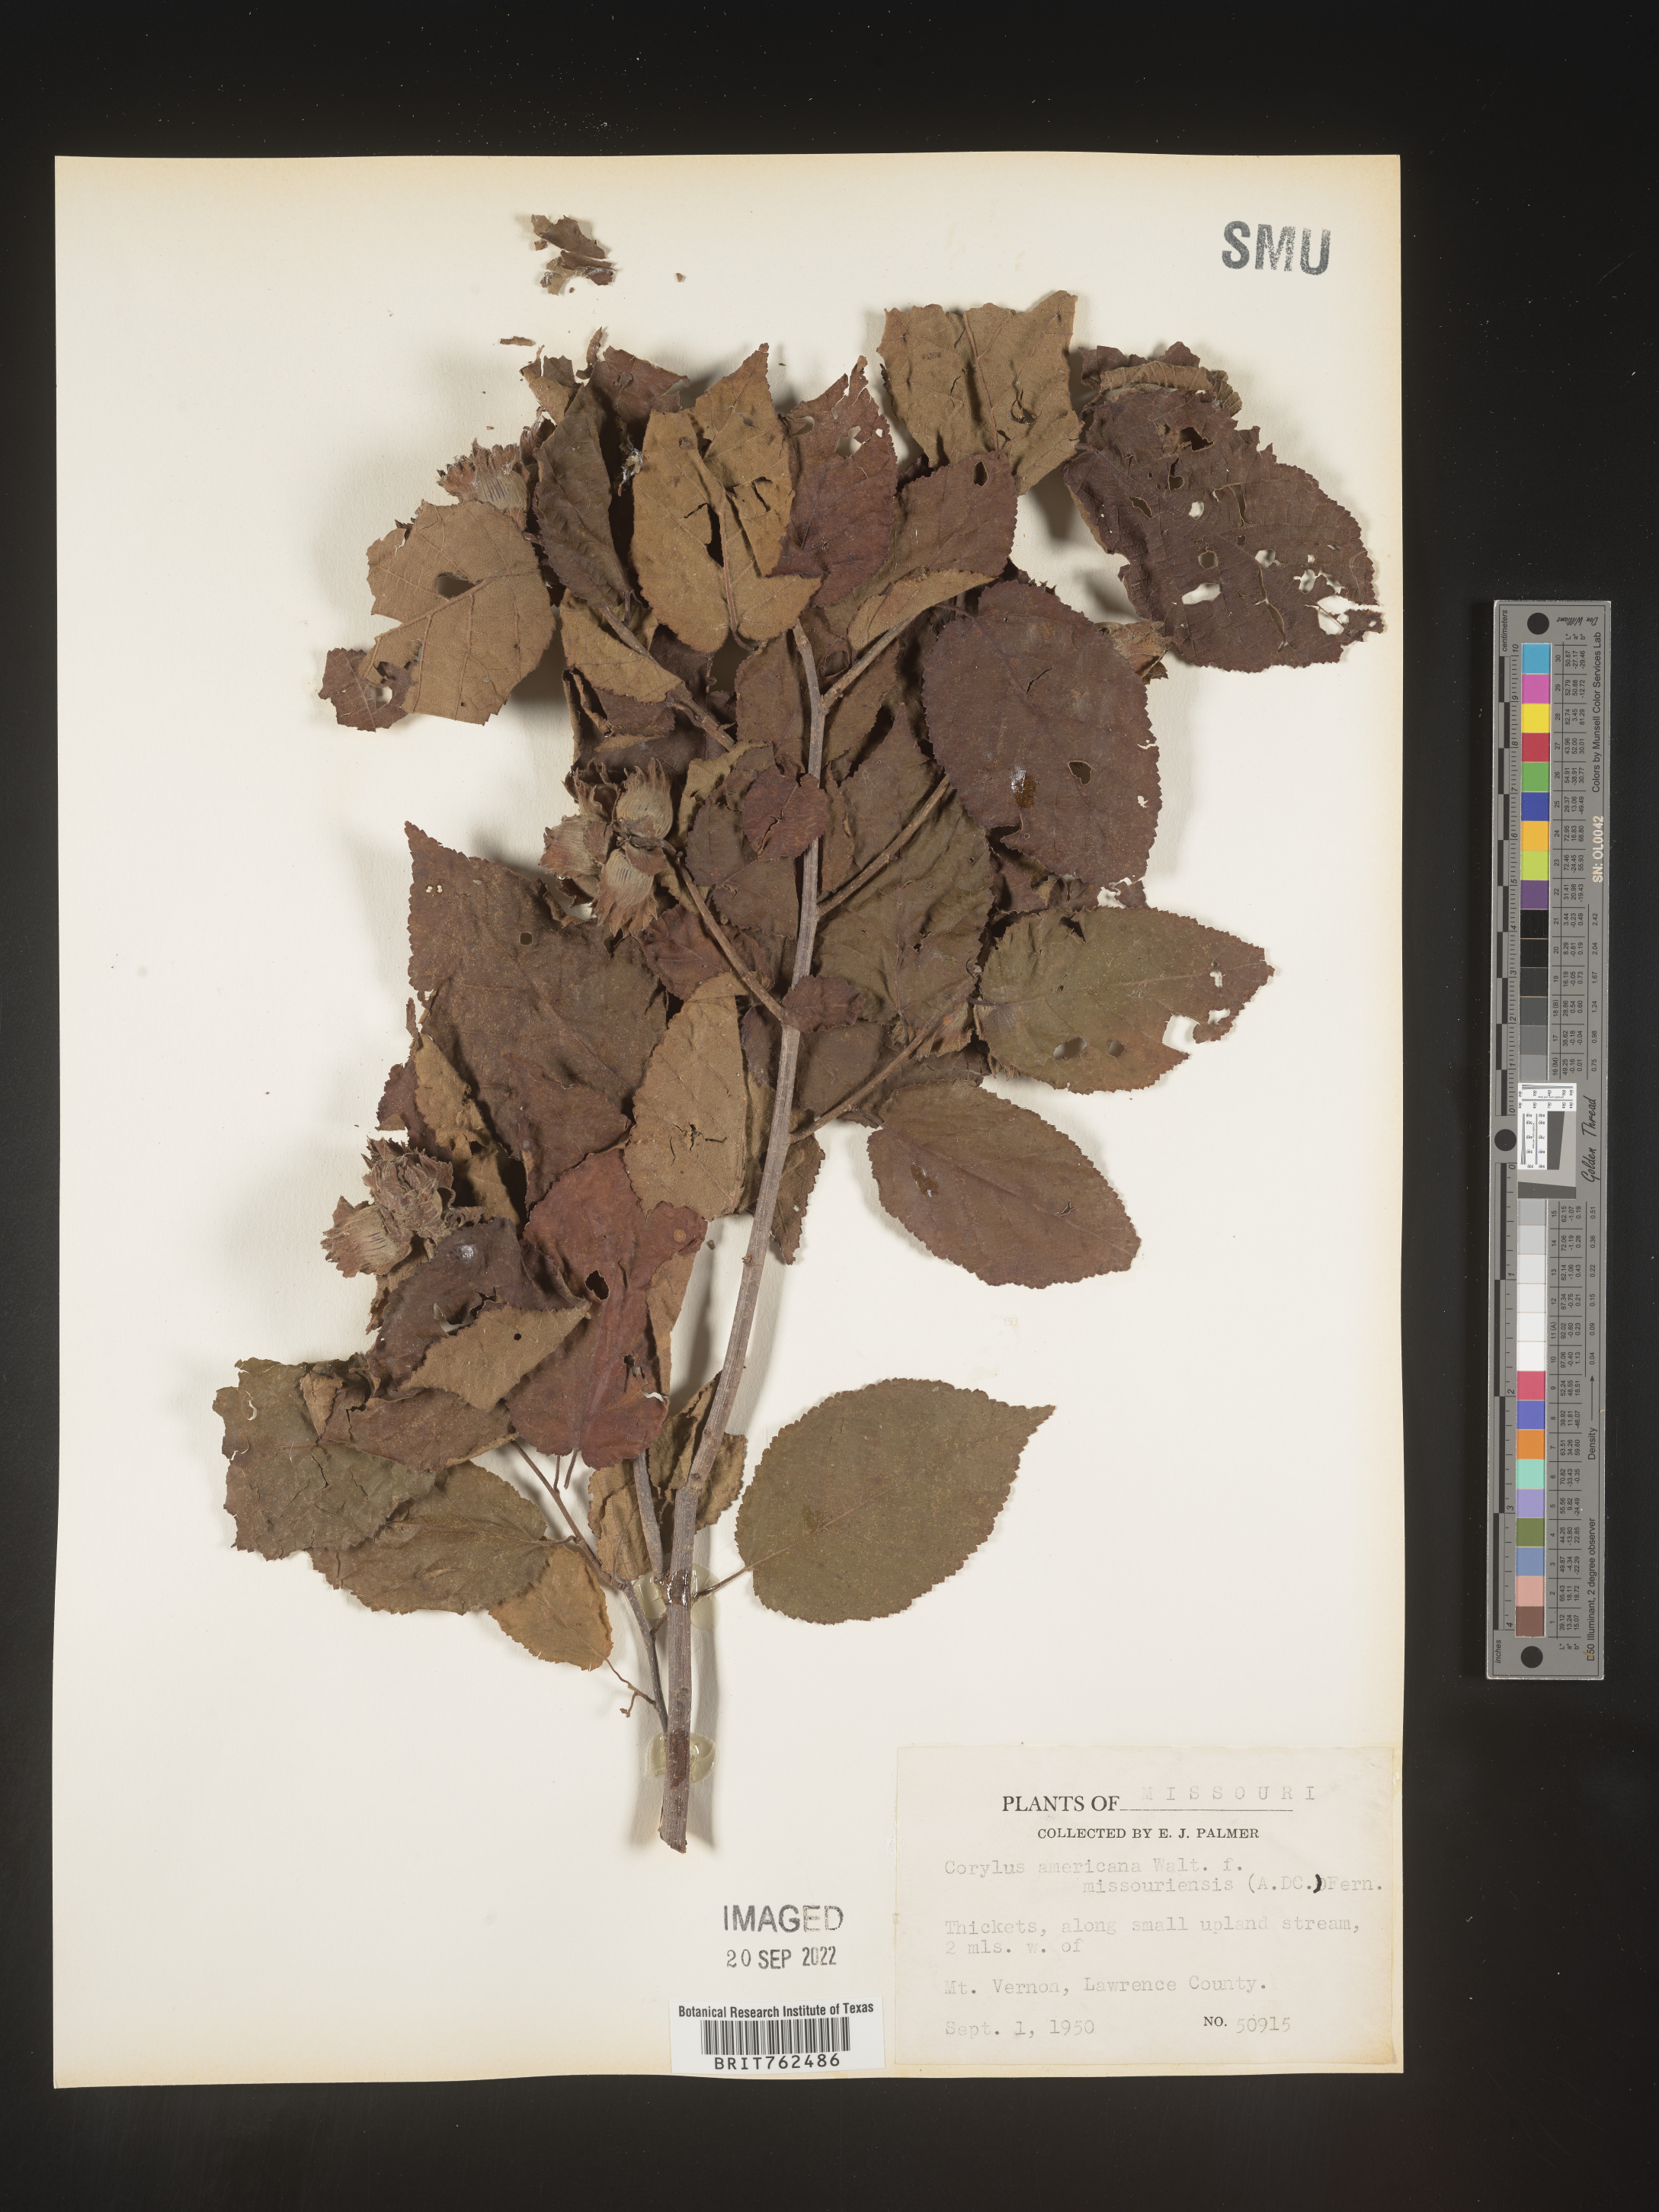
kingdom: Plantae
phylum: Tracheophyta
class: Magnoliopsida
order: Fagales
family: Betulaceae
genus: Corylus
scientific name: Corylus americana
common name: American hazel
